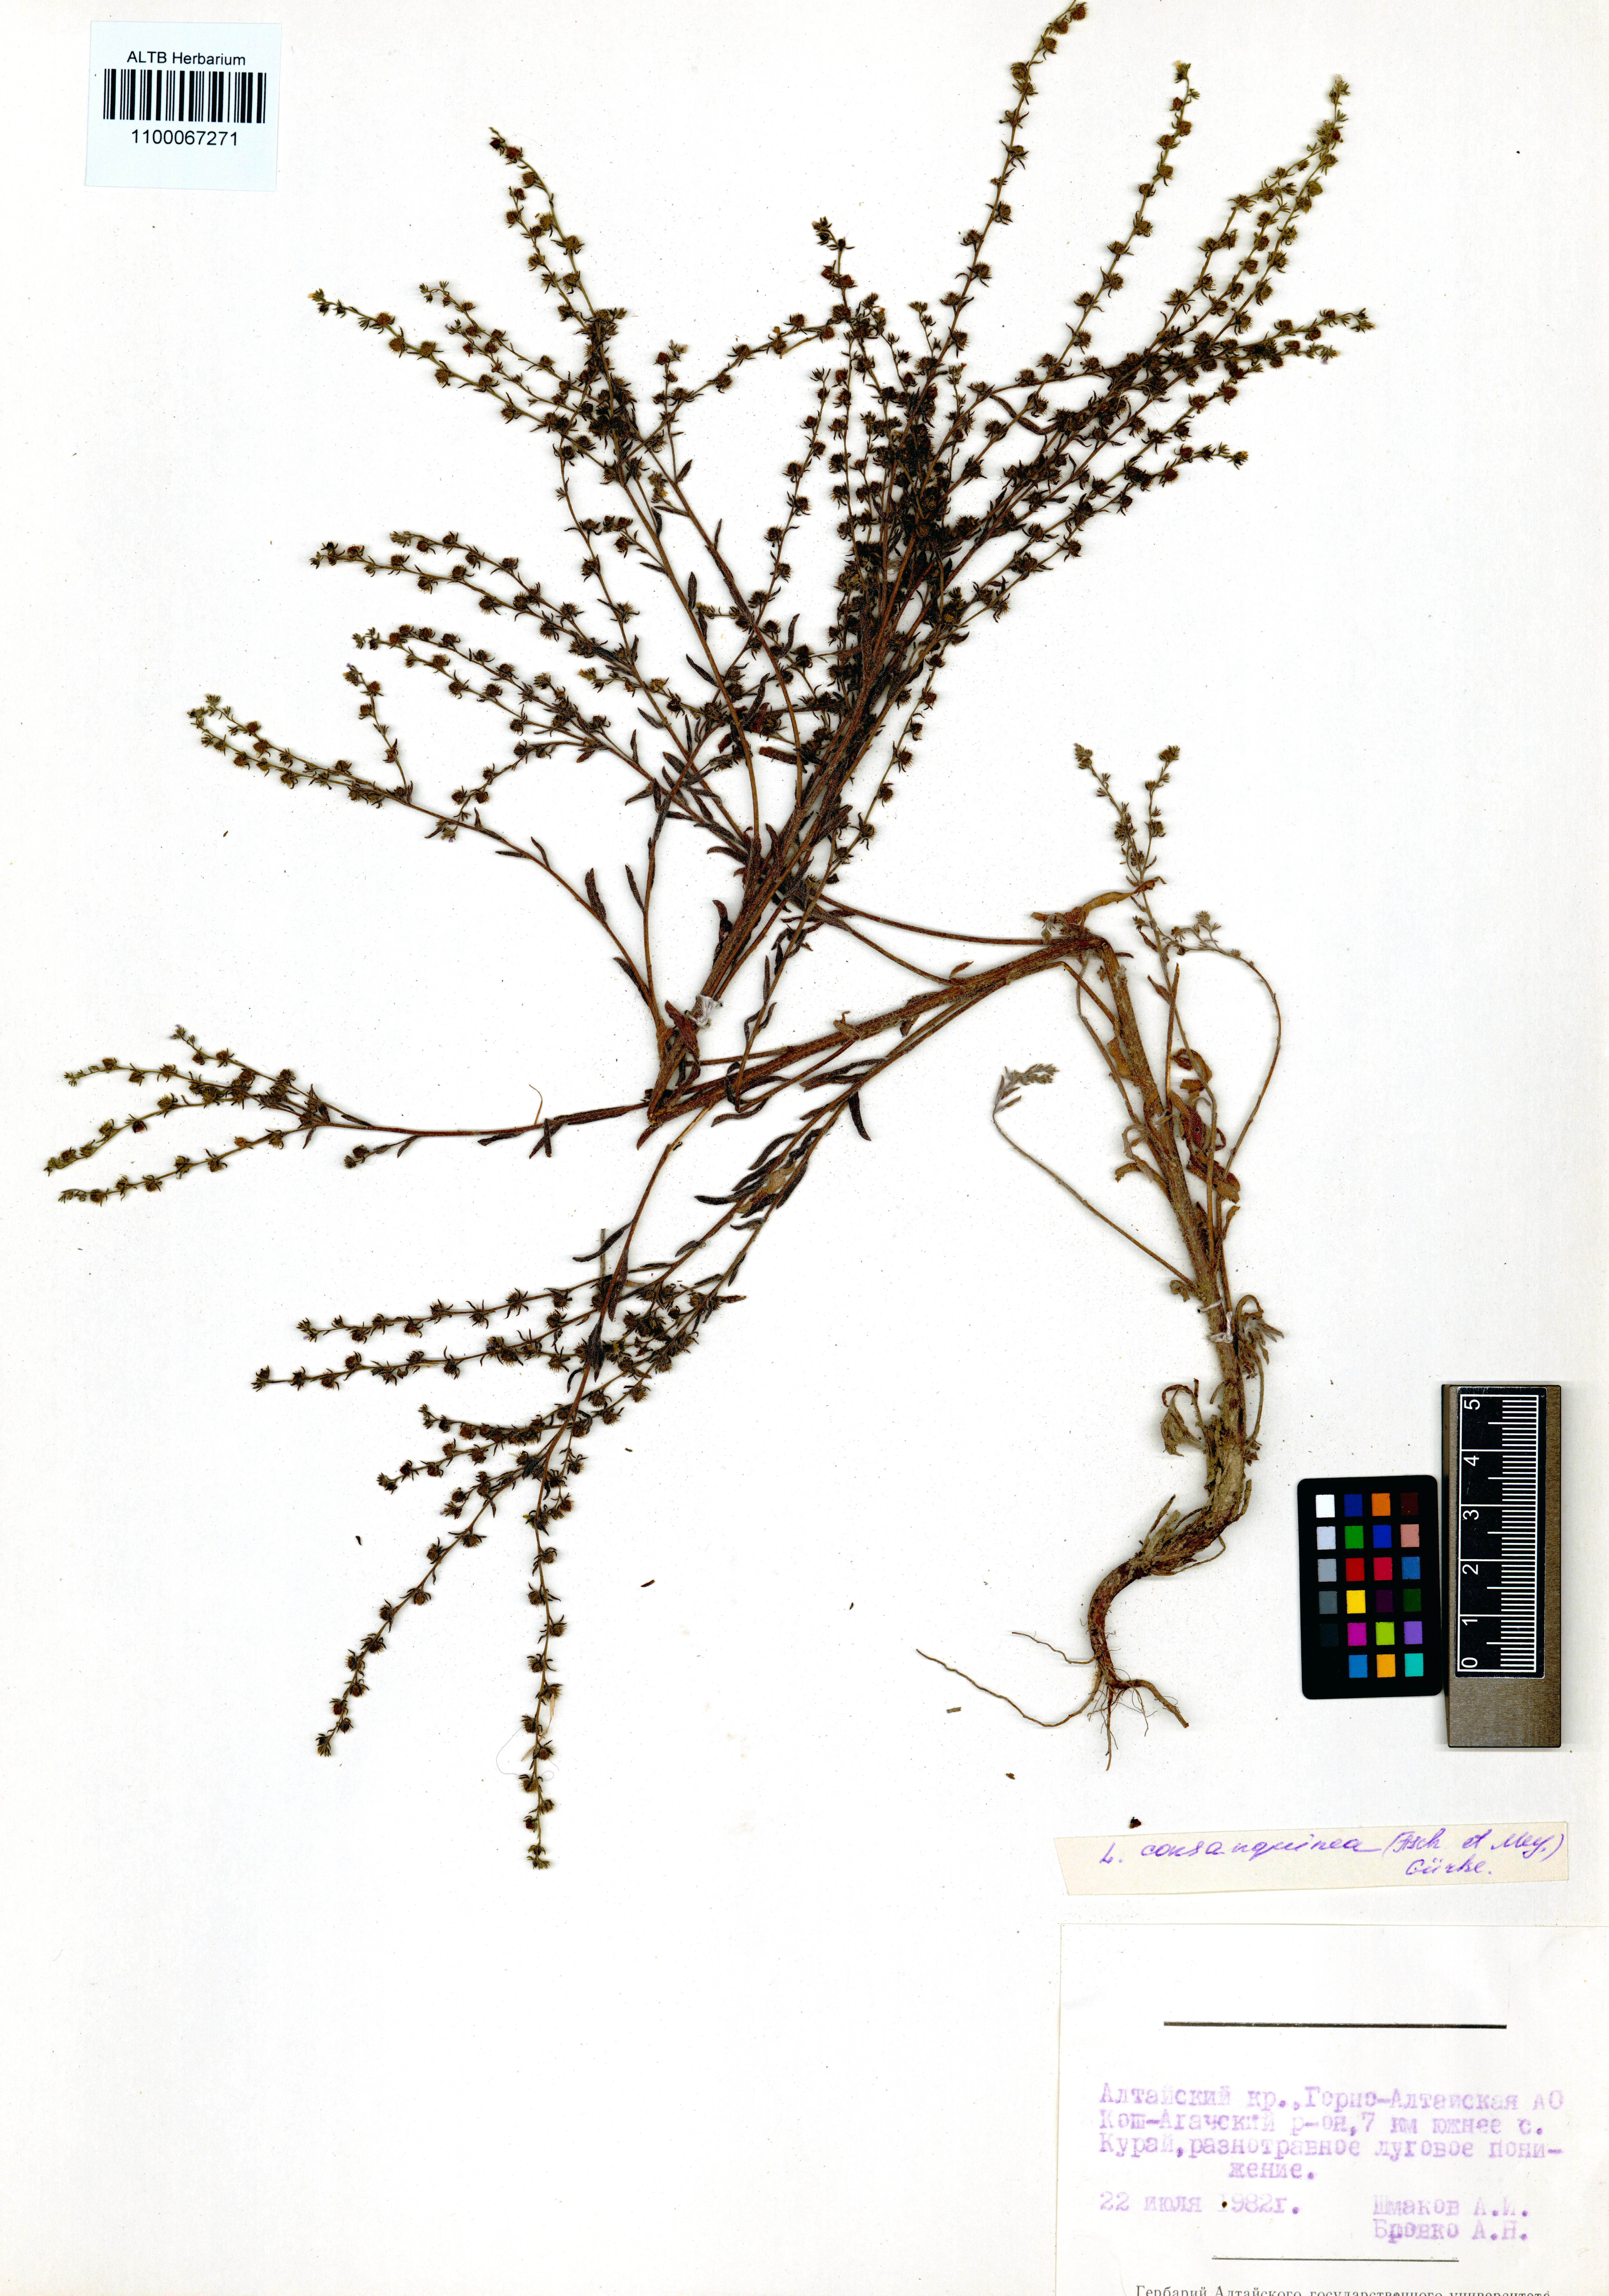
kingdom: Plantae
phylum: Tracheophyta
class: Magnoliopsida
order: Boraginales
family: Boraginaceae
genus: Lappula
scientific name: Lappula squarrosa
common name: European stickseed
